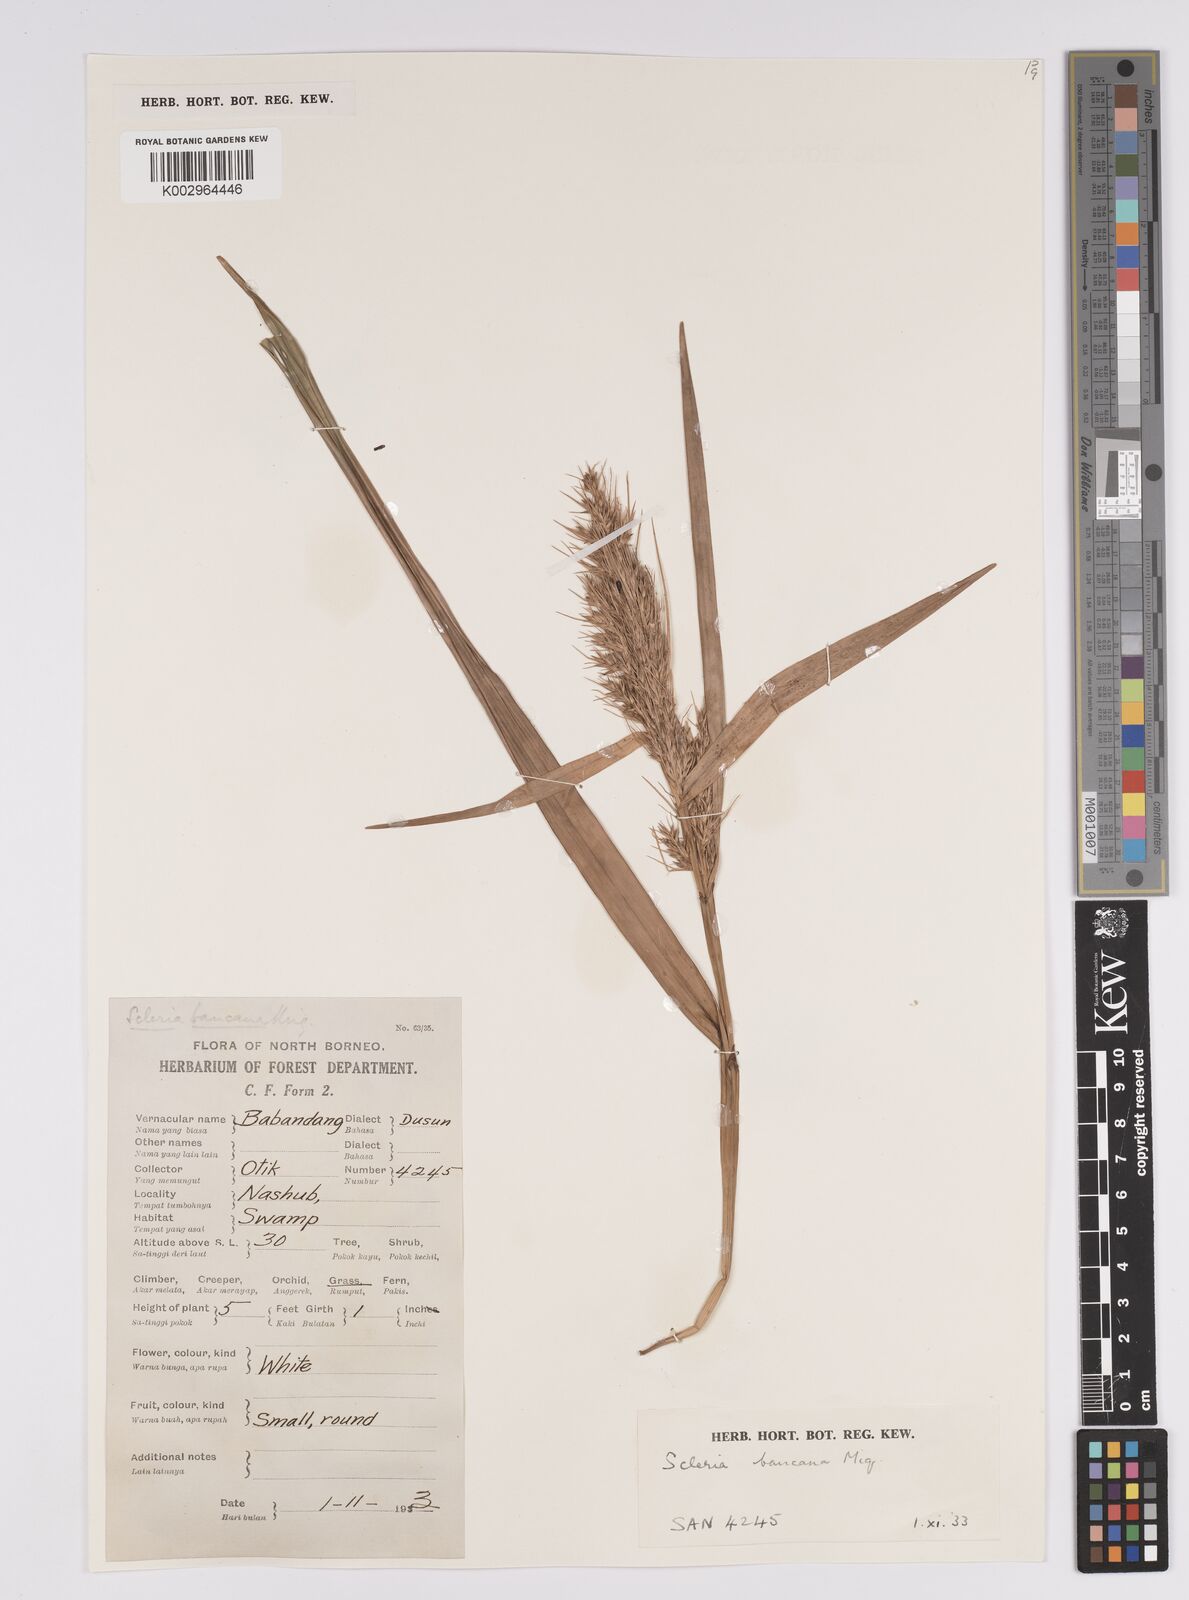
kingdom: Plantae
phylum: Tracheophyta
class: Liliopsida
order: Poales
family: Cyperaceae
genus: Scleria
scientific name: Scleria ciliaris
